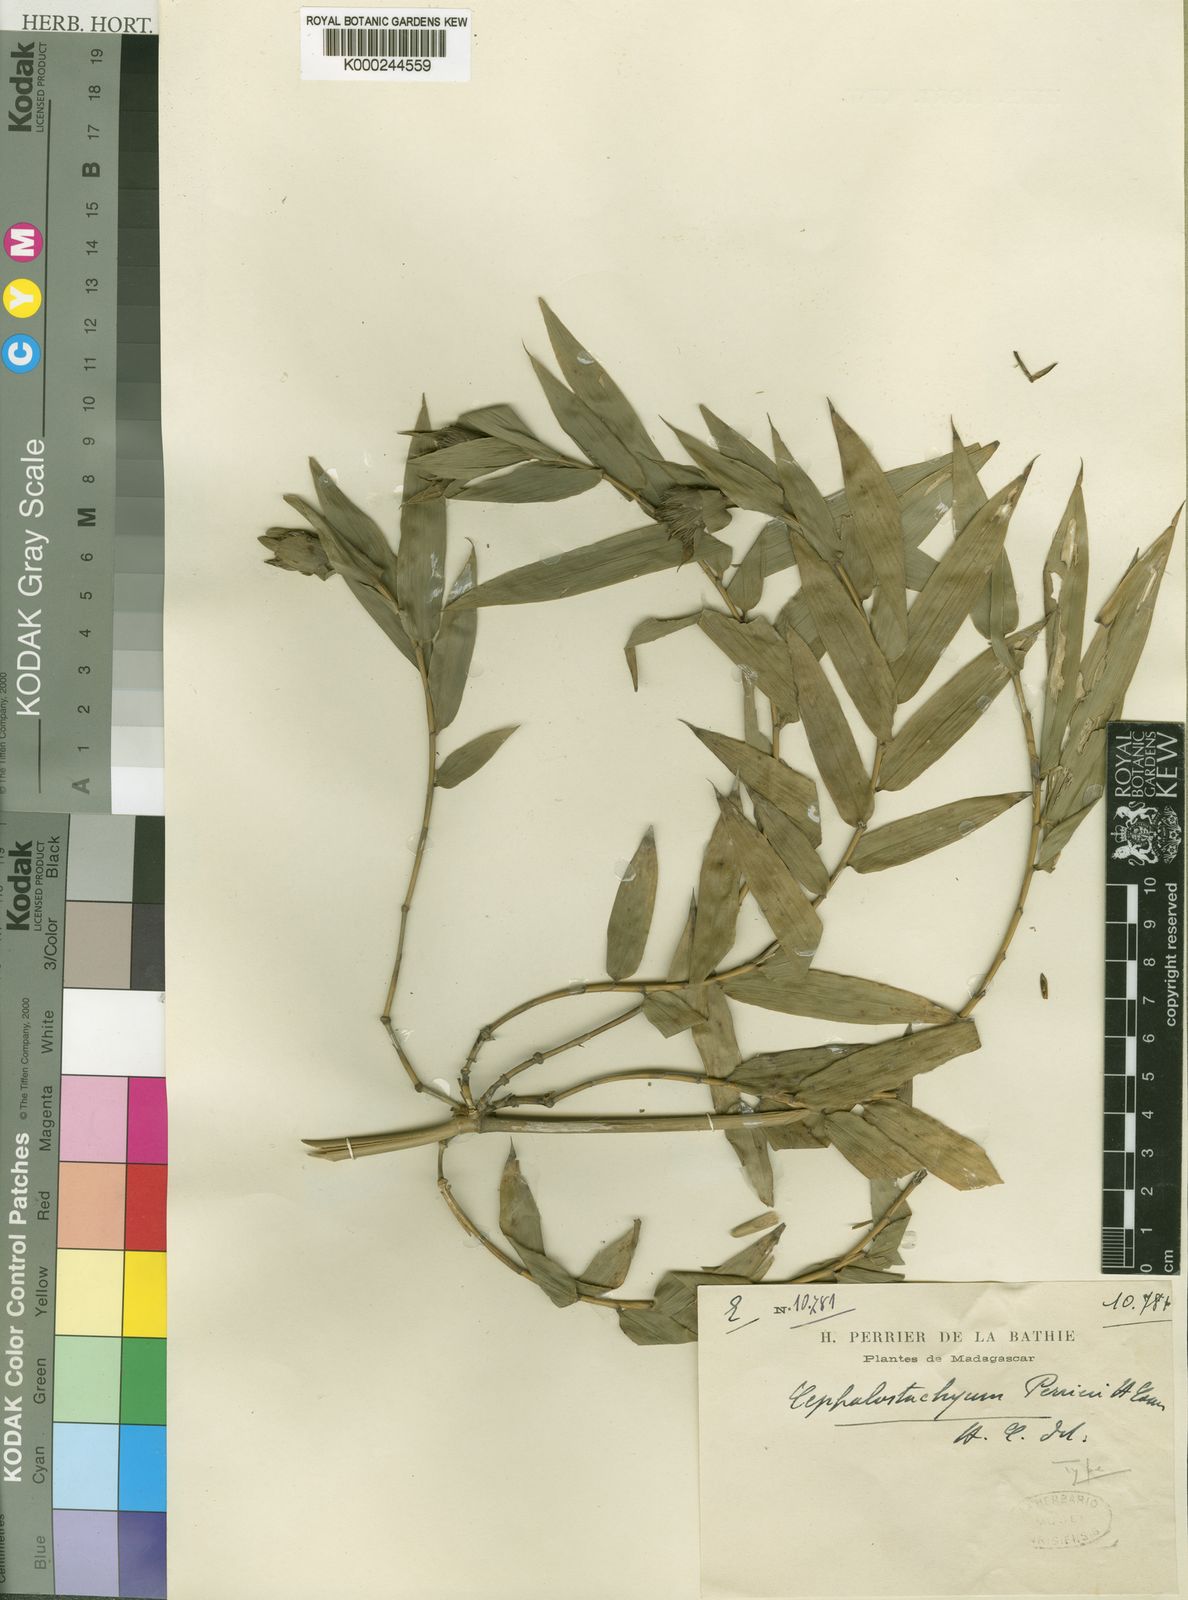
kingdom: Plantae
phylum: Tracheophyta
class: Liliopsida
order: Poales
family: Poaceae
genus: Sokinochloa
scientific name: Sokinochloa perrieri
